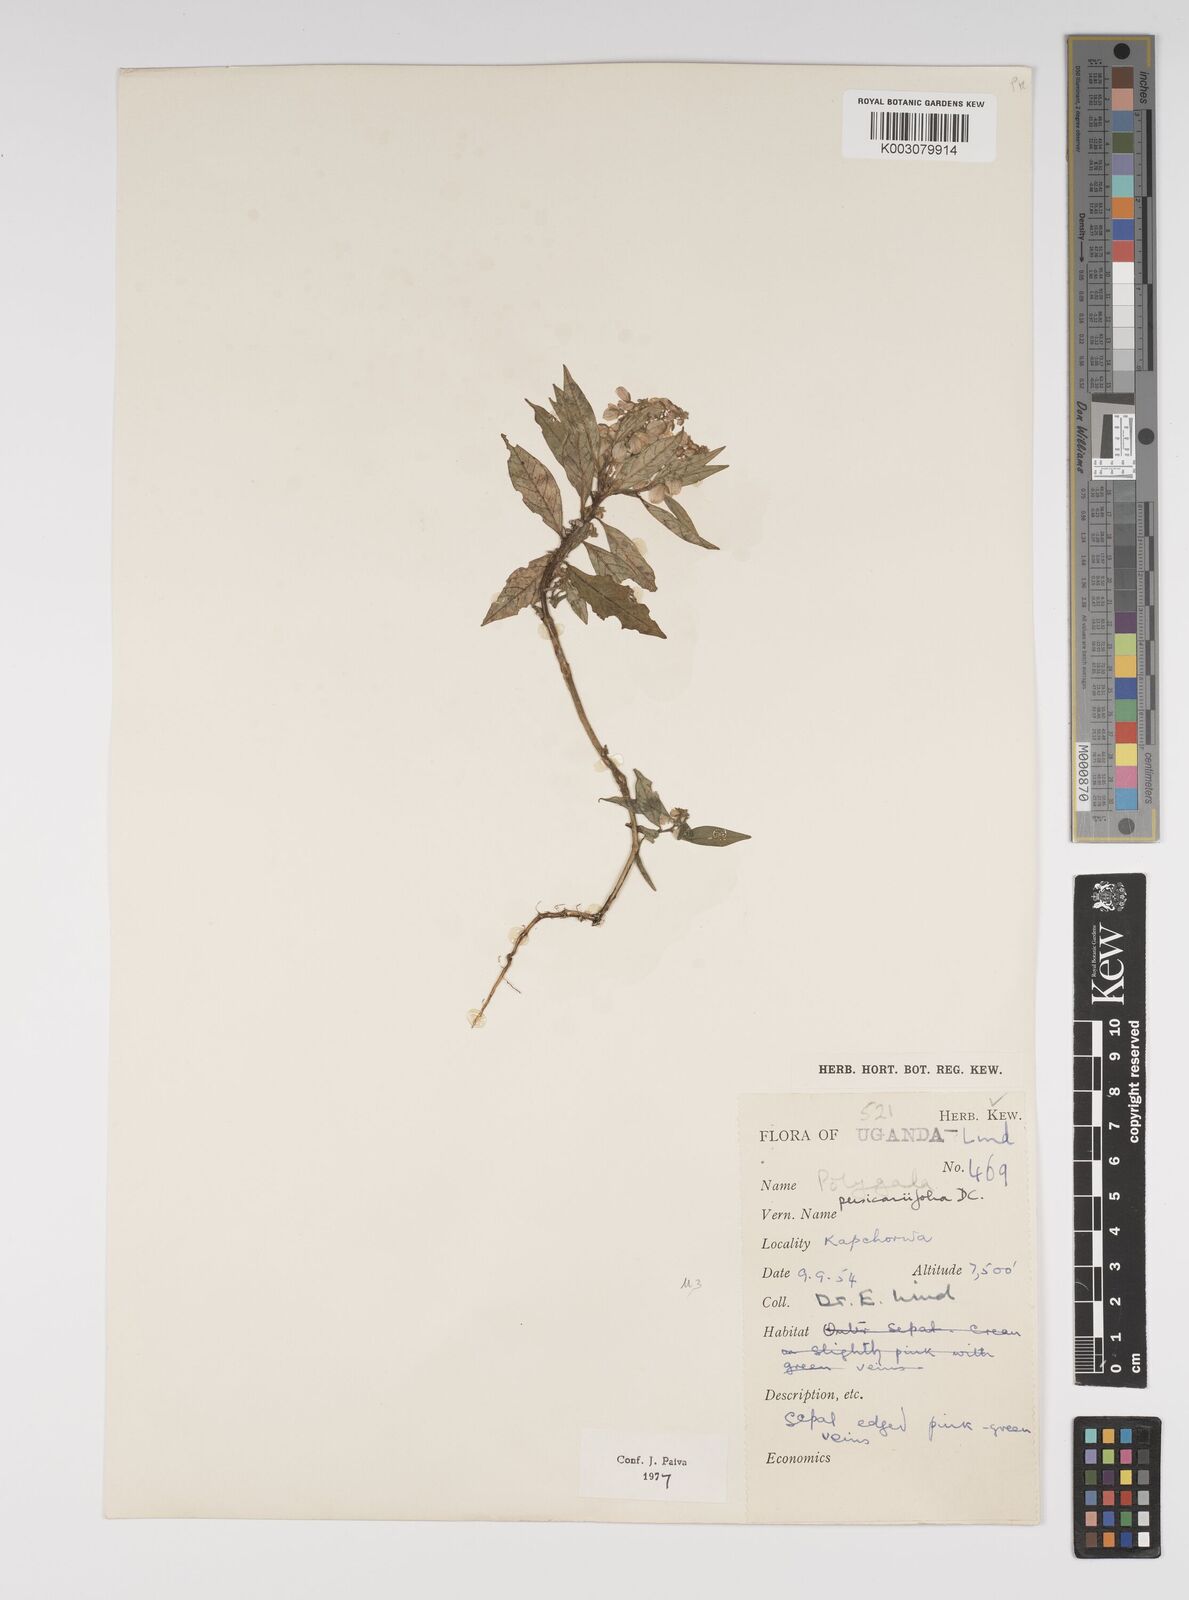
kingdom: Plantae
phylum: Tracheophyta
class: Magnoliopsida
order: Fabales
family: Polygalaceae
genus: Polygala
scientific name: Polygala persicariifolia
